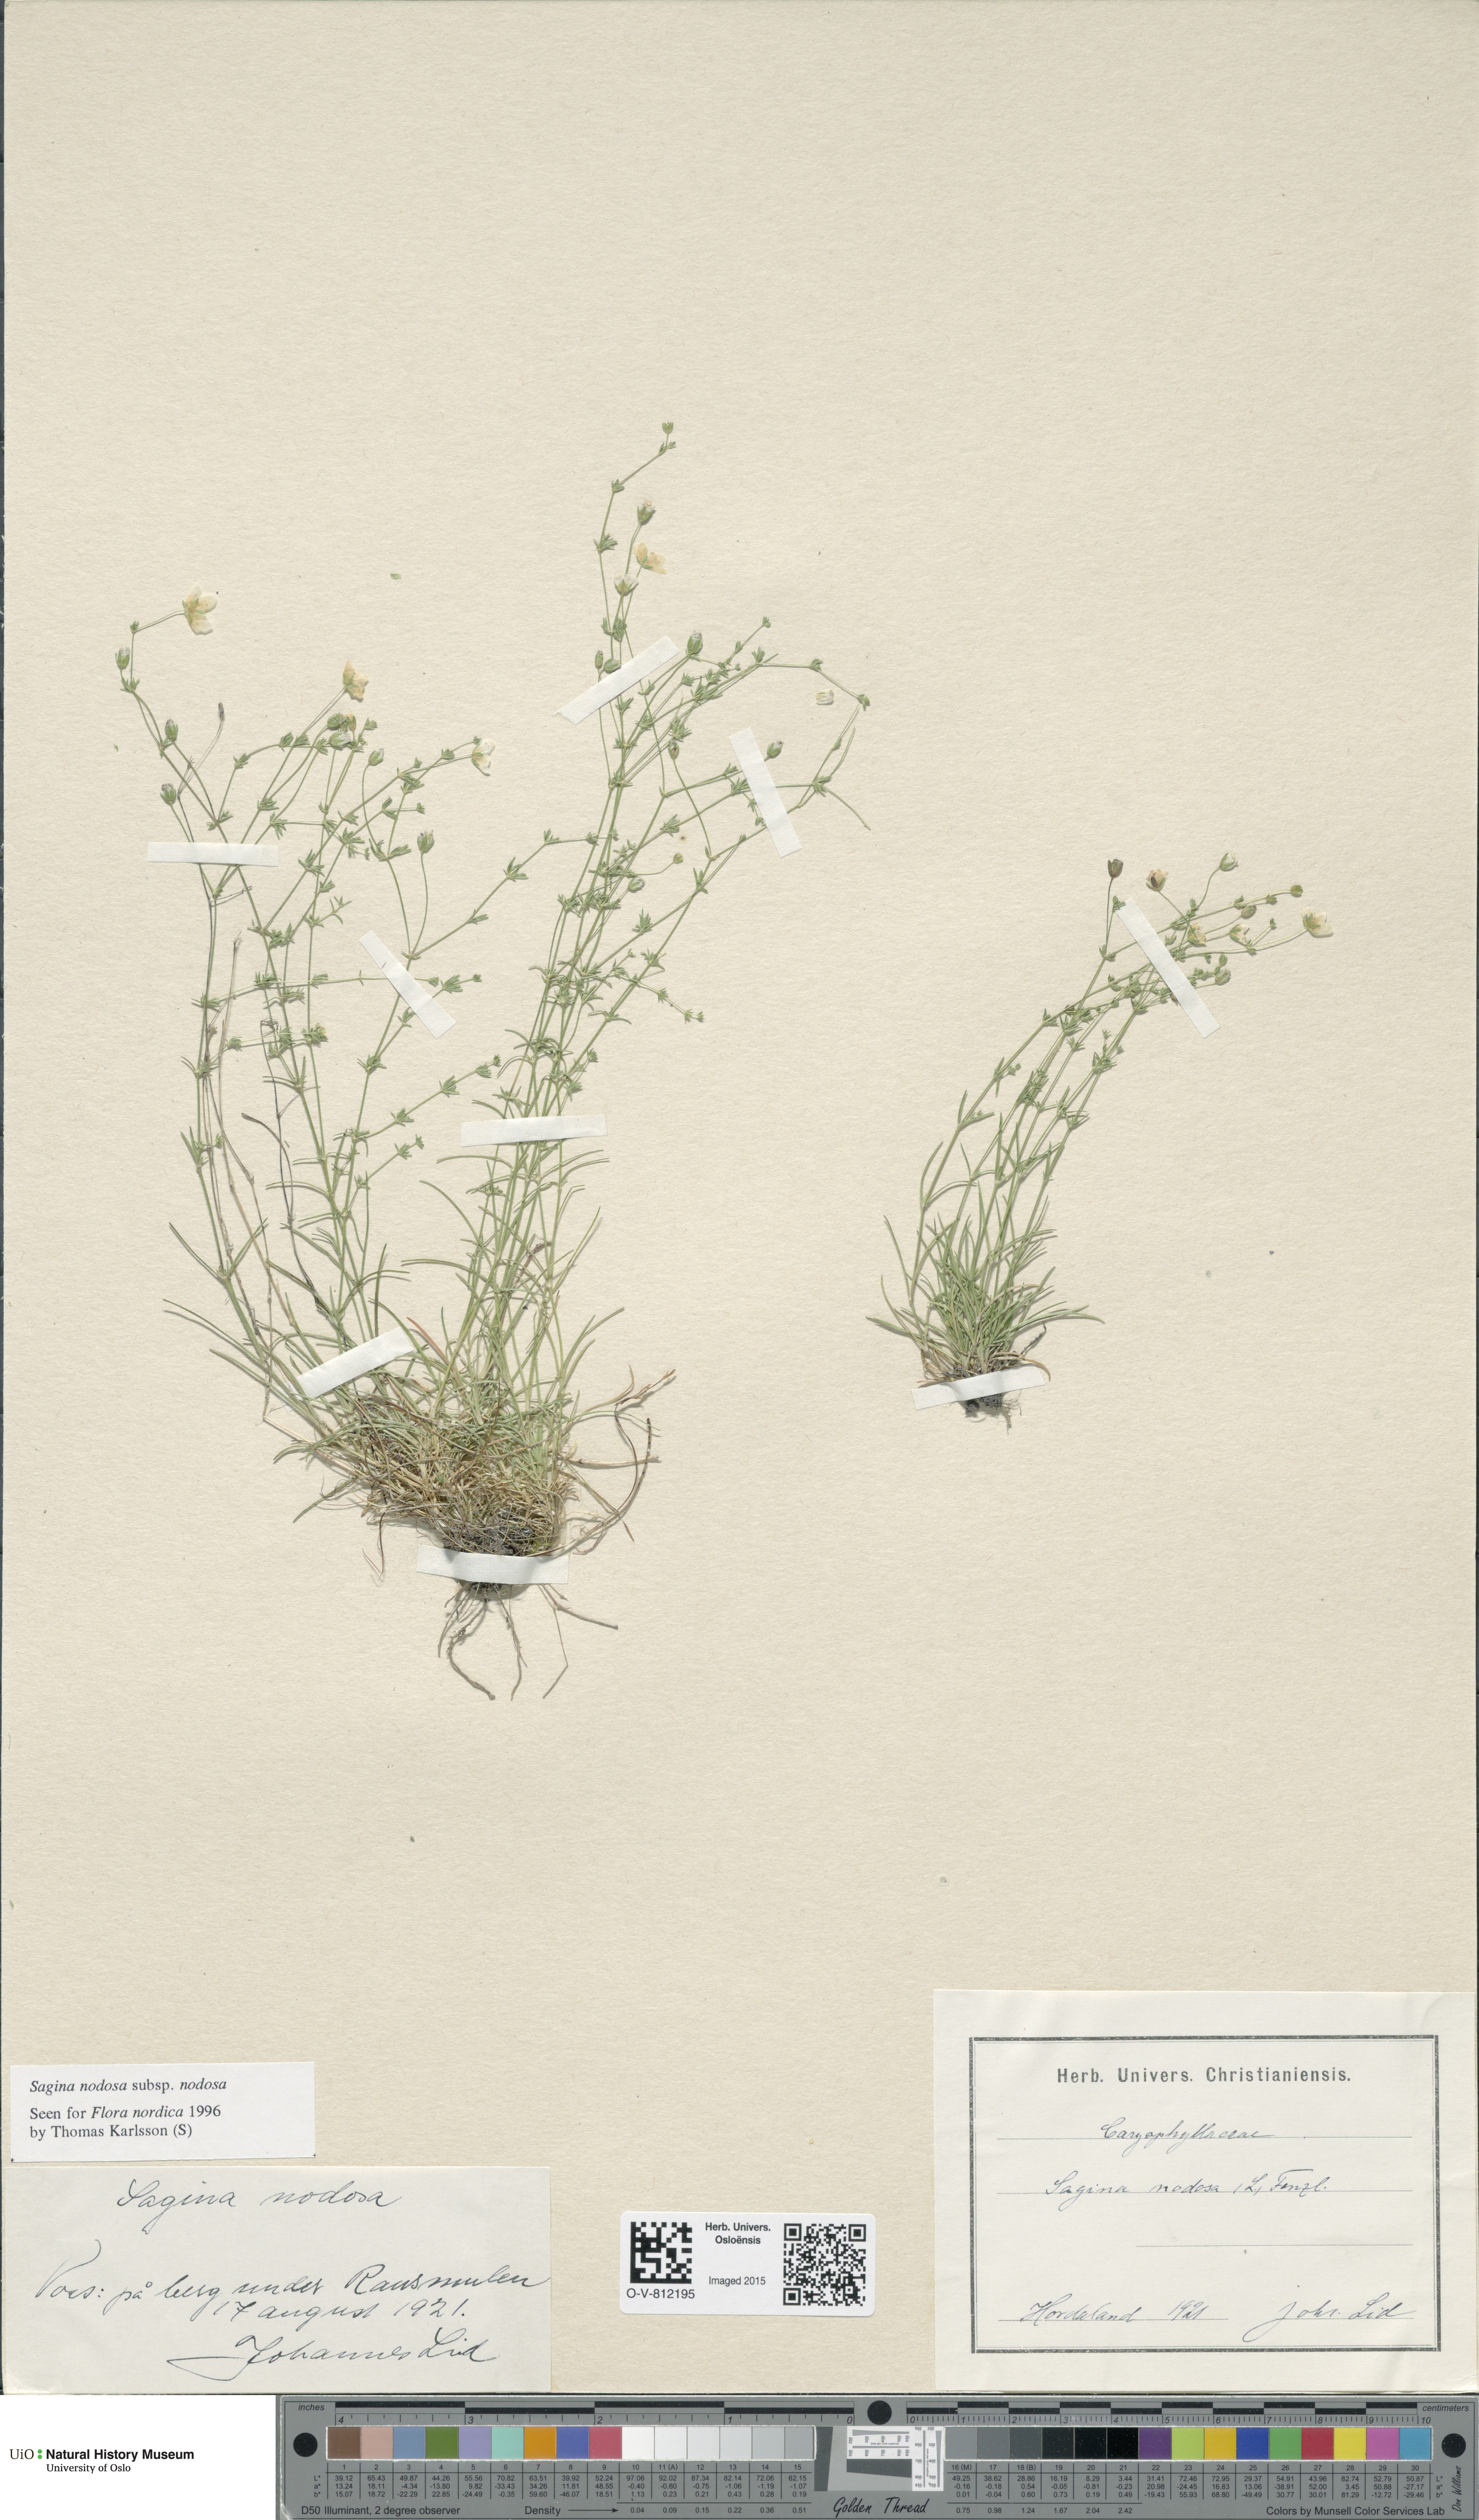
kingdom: Plantae
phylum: Tracheophyta
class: Magnoliopsida
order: Caryophyllales
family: Caryophyllaceae
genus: Sagina
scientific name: Sagina nodosa
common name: Knotted pearlwort
